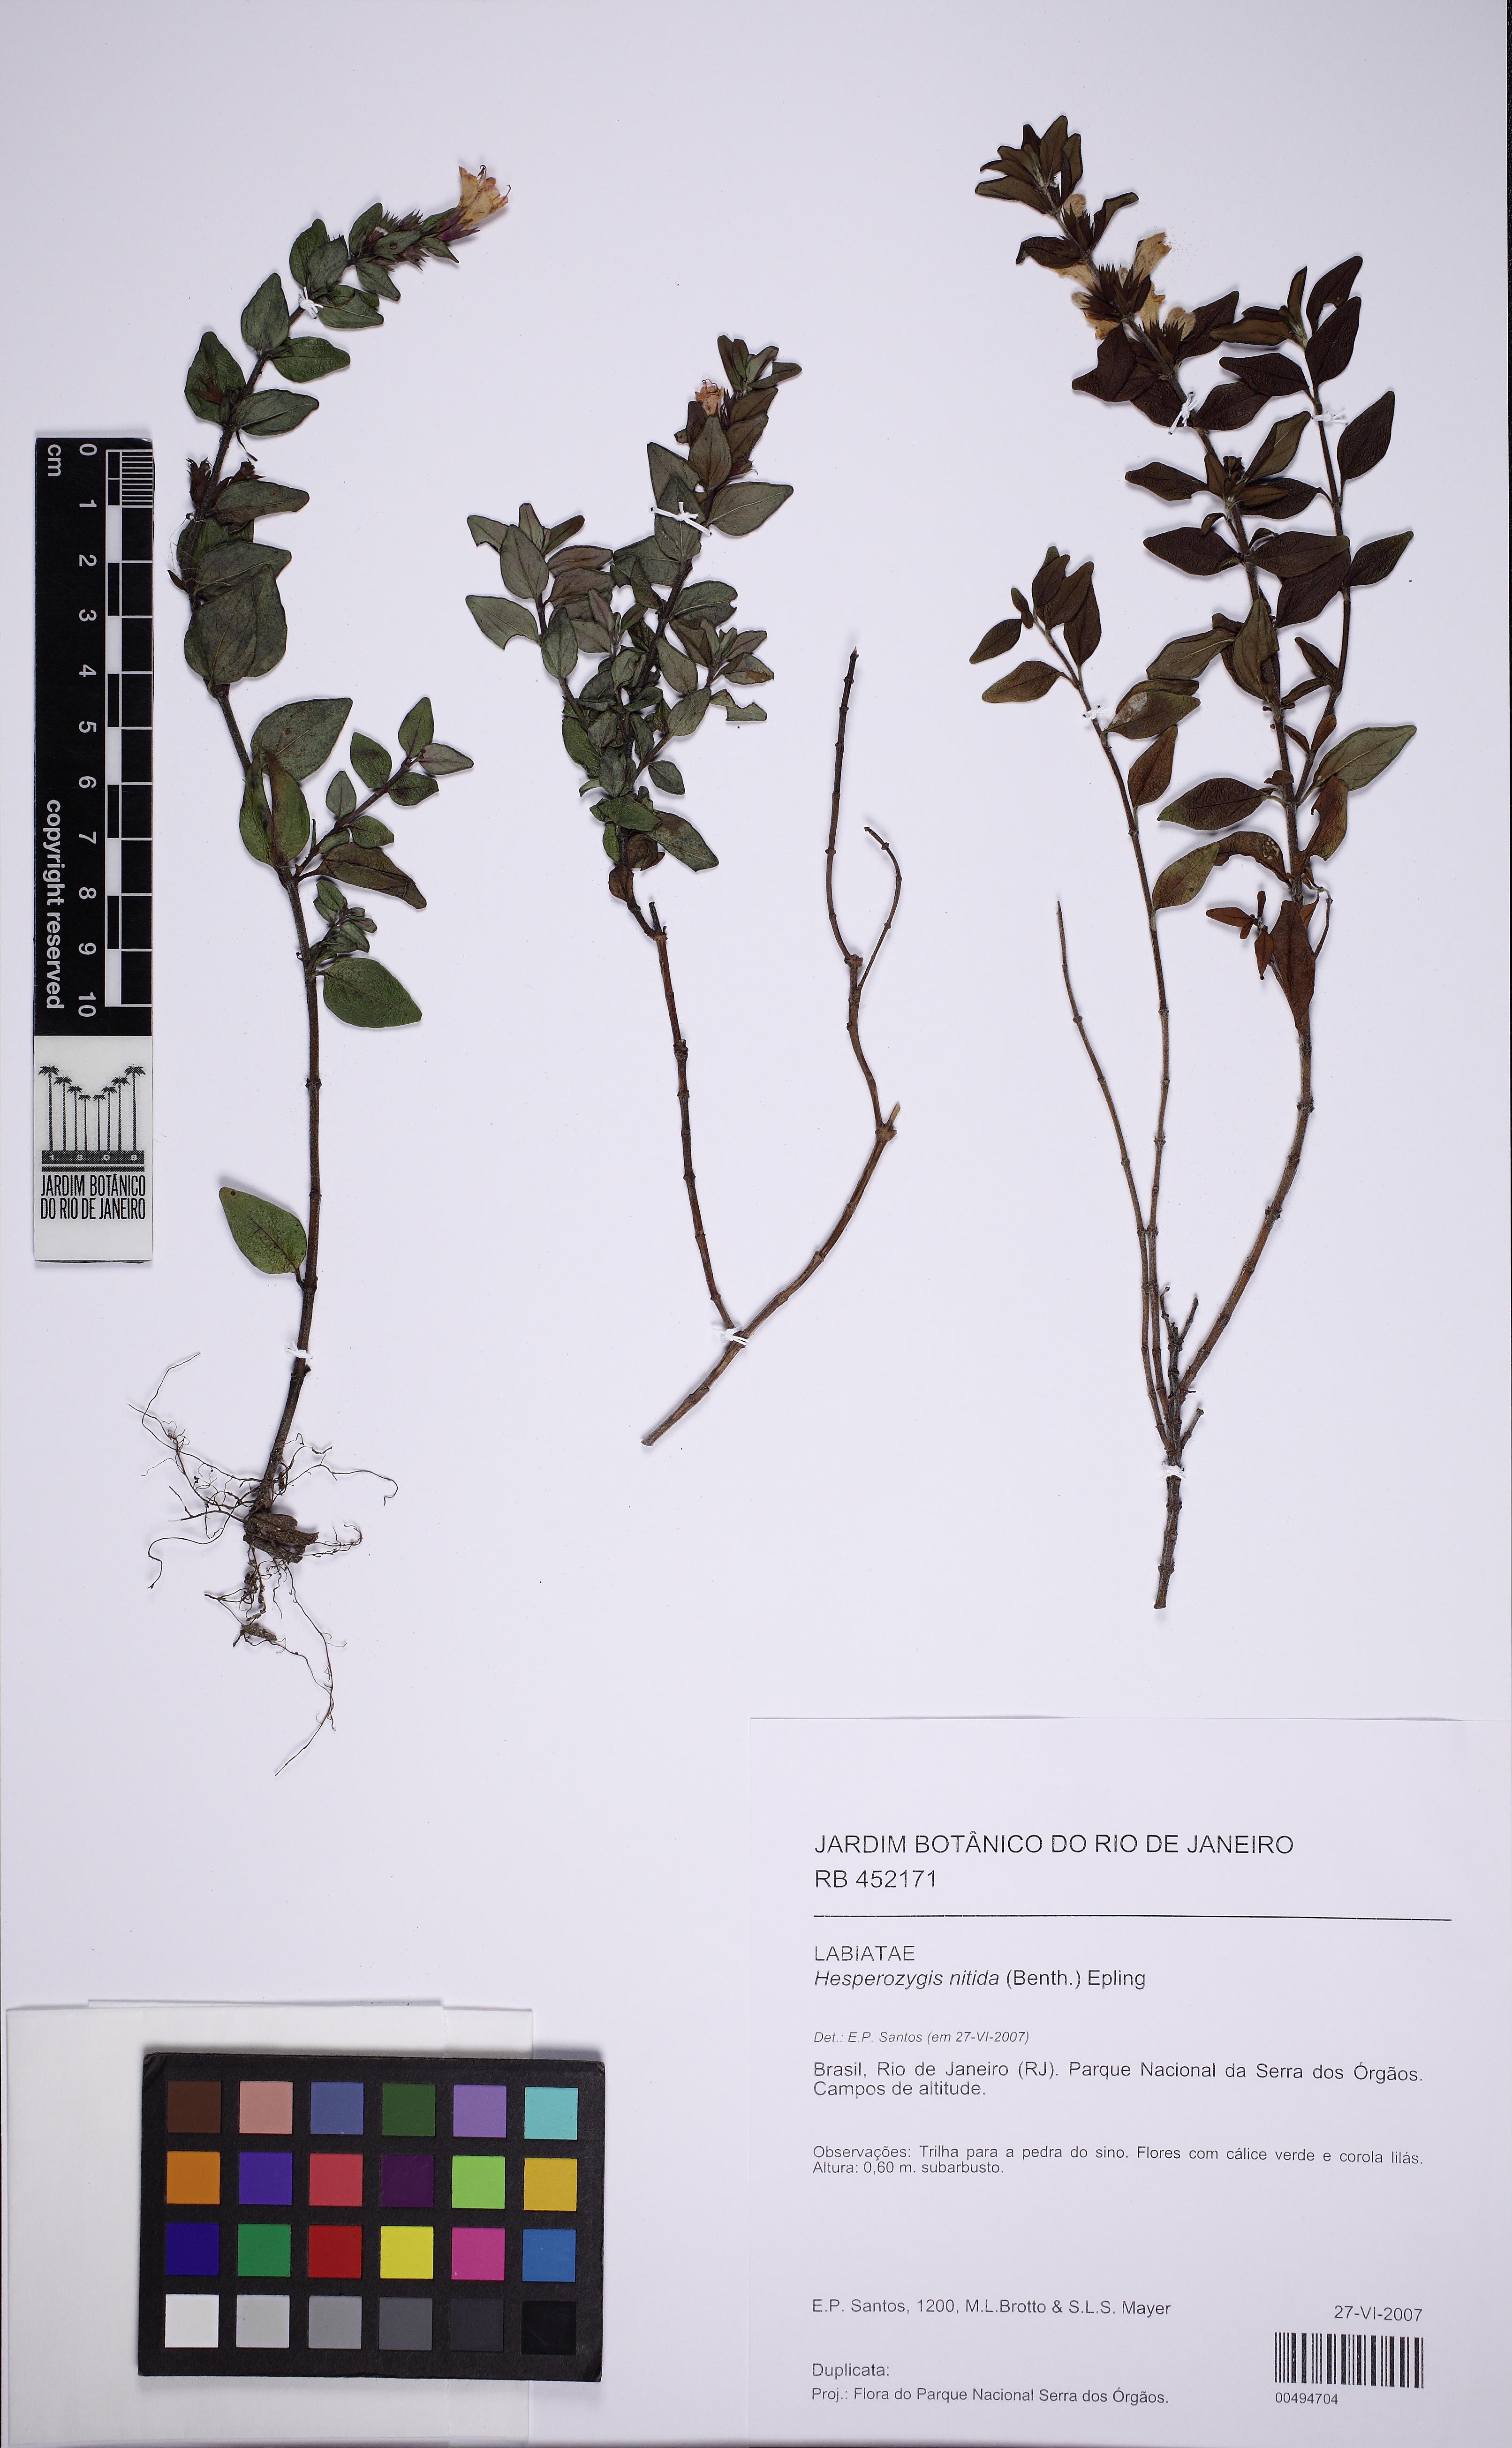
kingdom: Plantae
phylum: Tracheophyta
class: Magnoliopsida
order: Lamiales
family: Lamiaceae
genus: Hesperozygis
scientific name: Hesperozygis nitida
